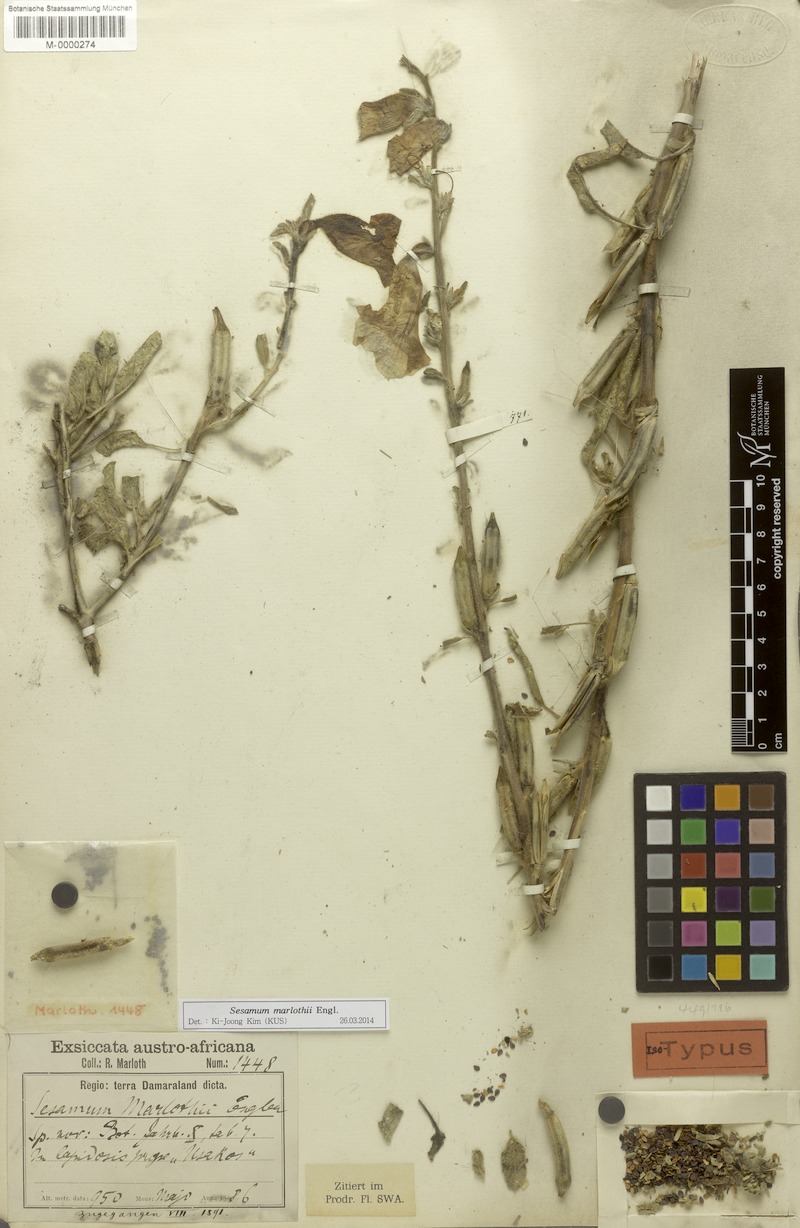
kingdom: Plantae
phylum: Tracheophyta
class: Magnoliopsida
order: Lamiales
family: Pedaliaceae
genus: Sesamum
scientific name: Sesamum marlothii
